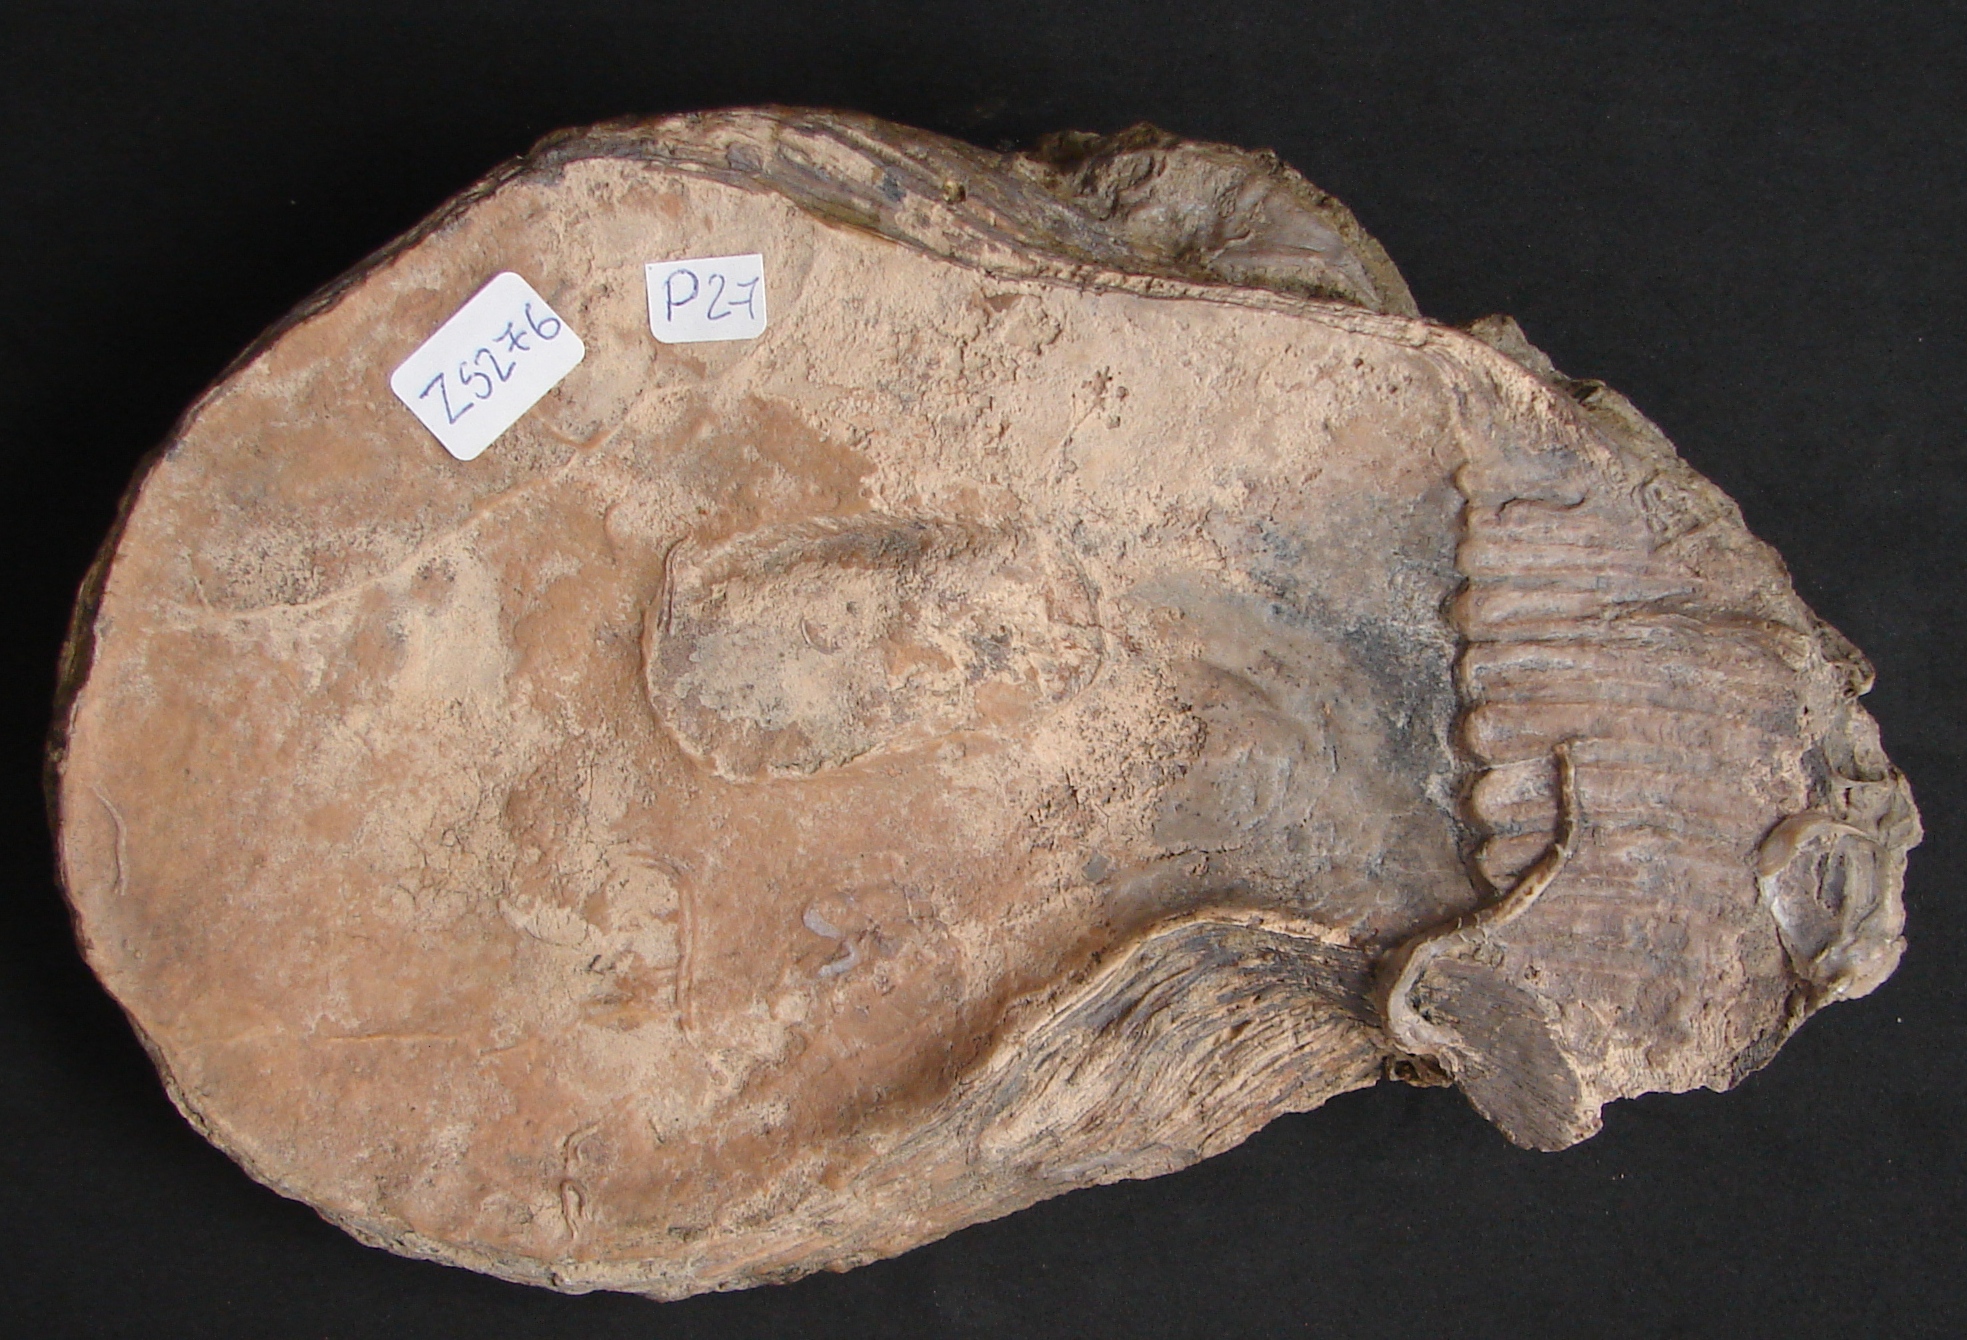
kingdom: Animalia
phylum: Mollusca
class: Bivalvia
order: Ostreida
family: Isognomonidae
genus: Isognomon
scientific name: Isognomon isognomonoides
